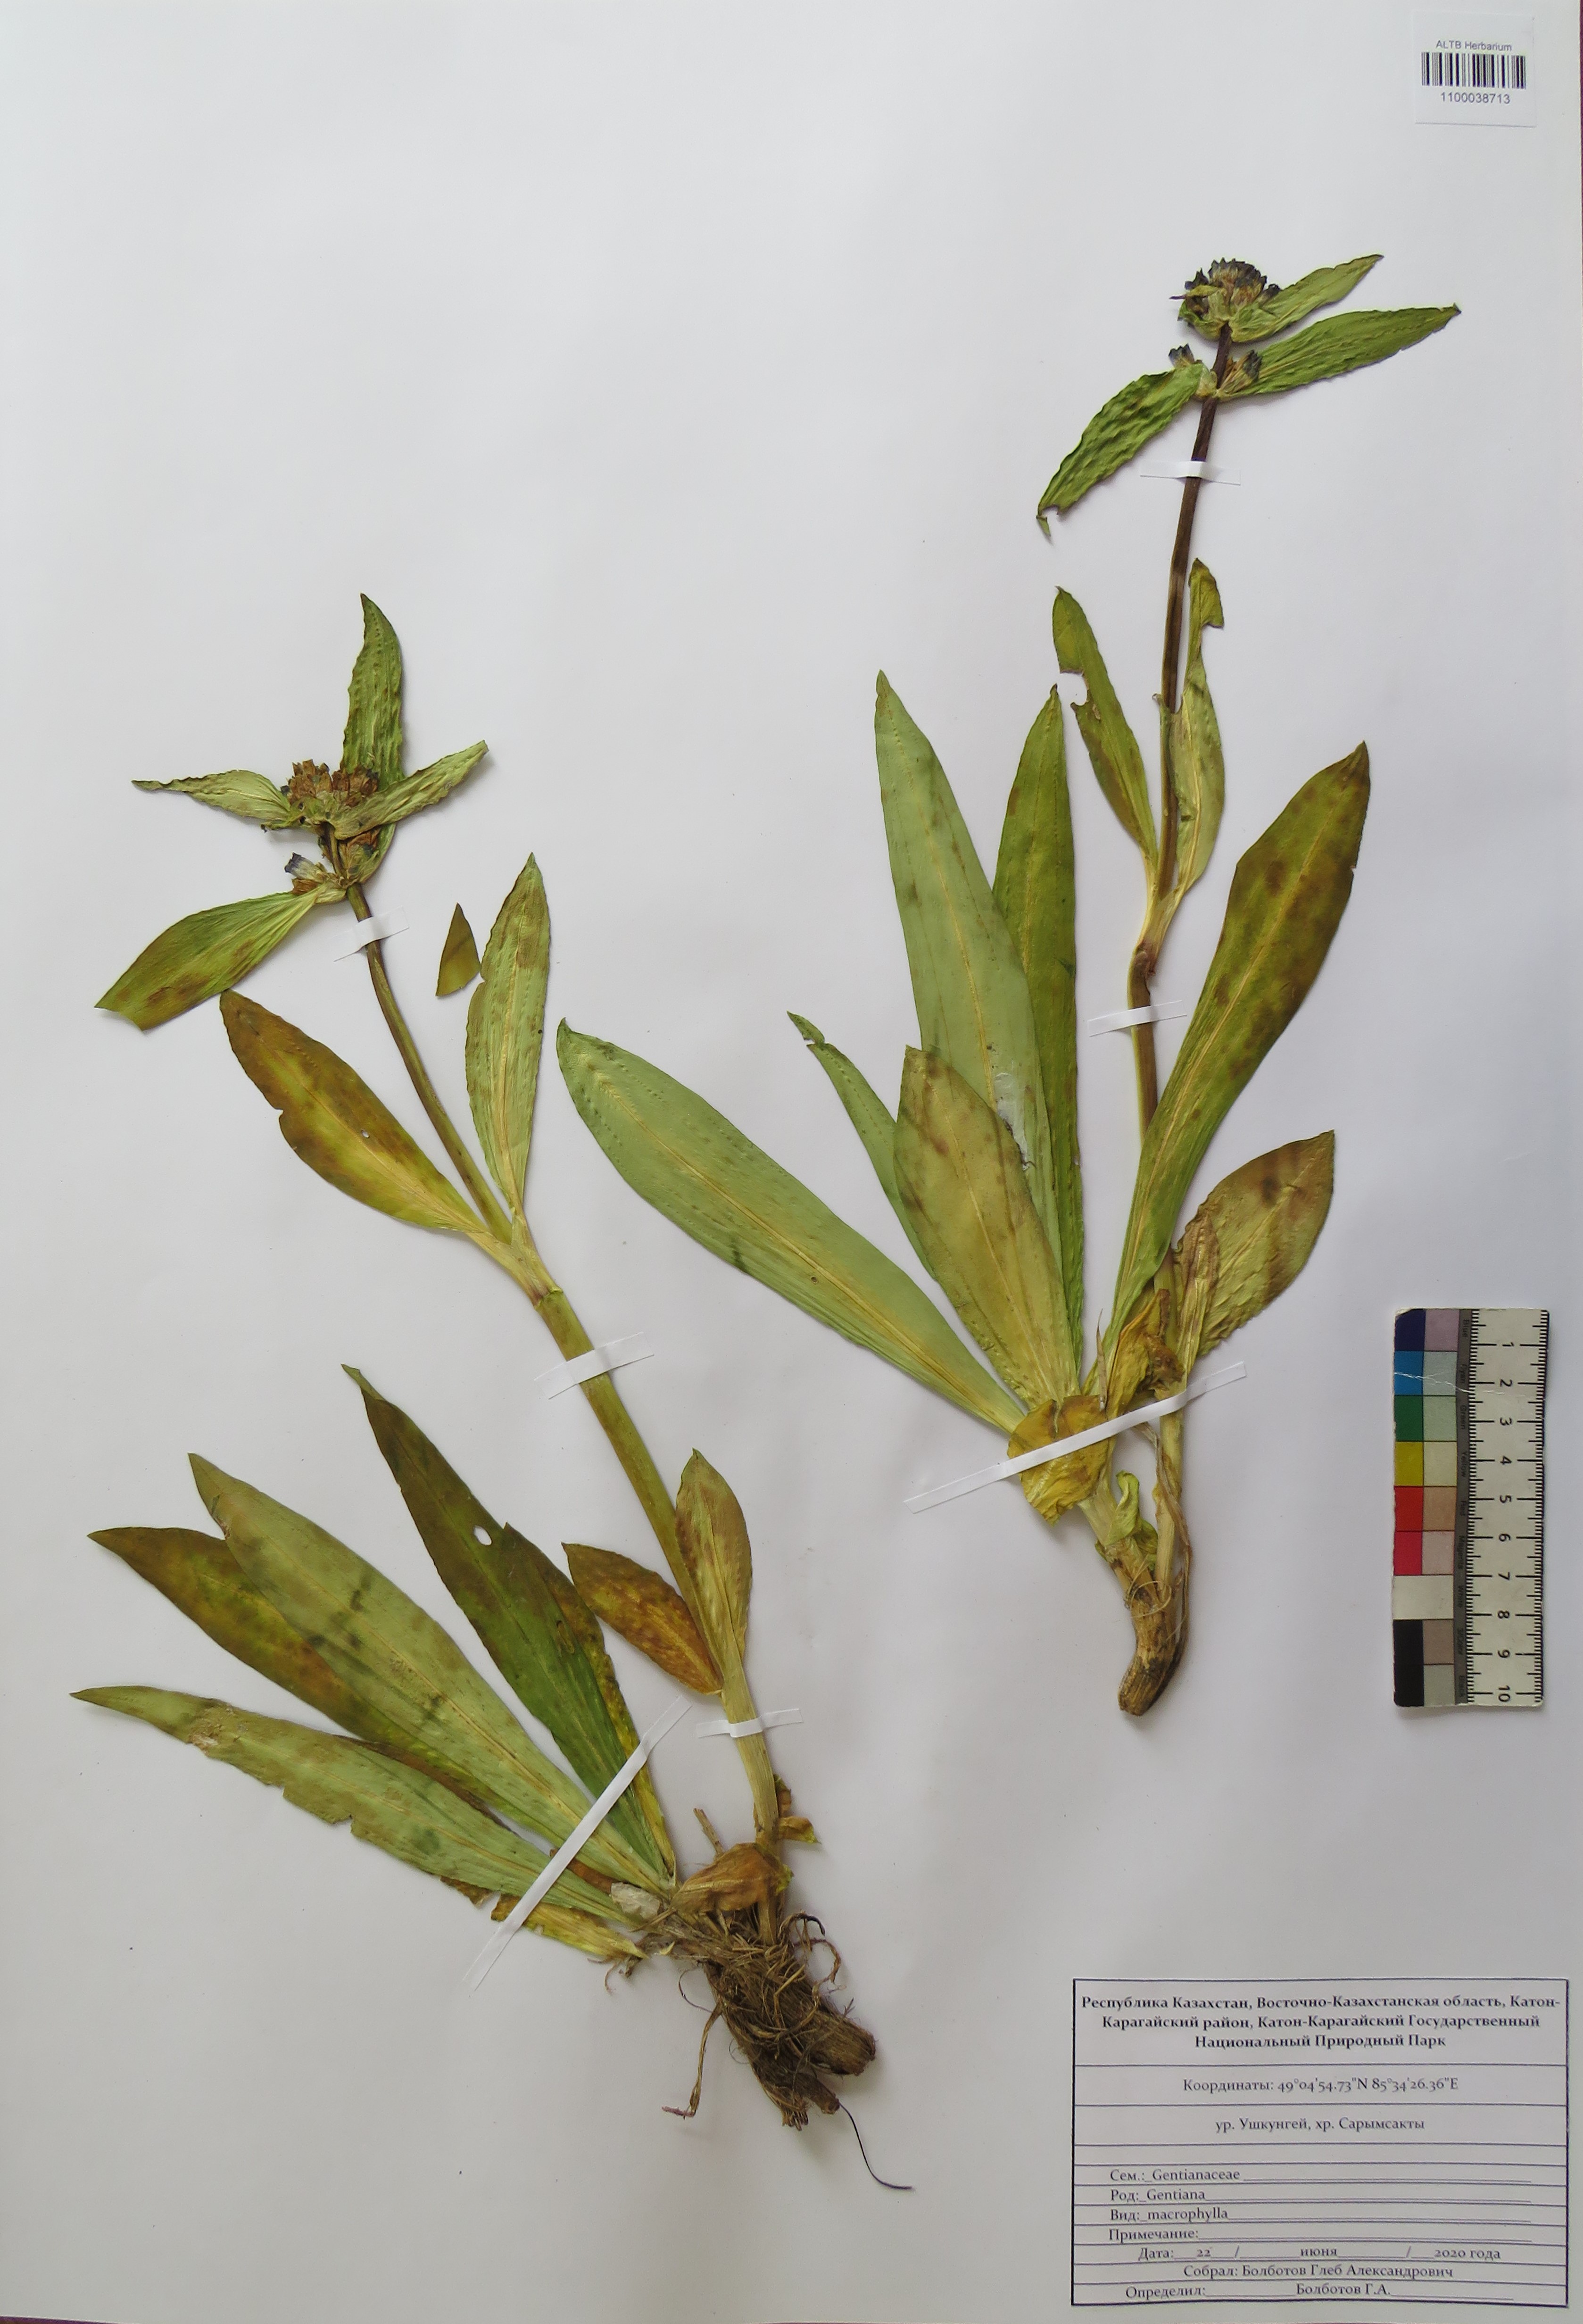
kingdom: Plantae
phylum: Tracheophyta
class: Magnoliopsida
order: Gentianales
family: Gentianaceae
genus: Gentiana
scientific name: Gentiana macrophylla
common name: Large-leaf gentian
